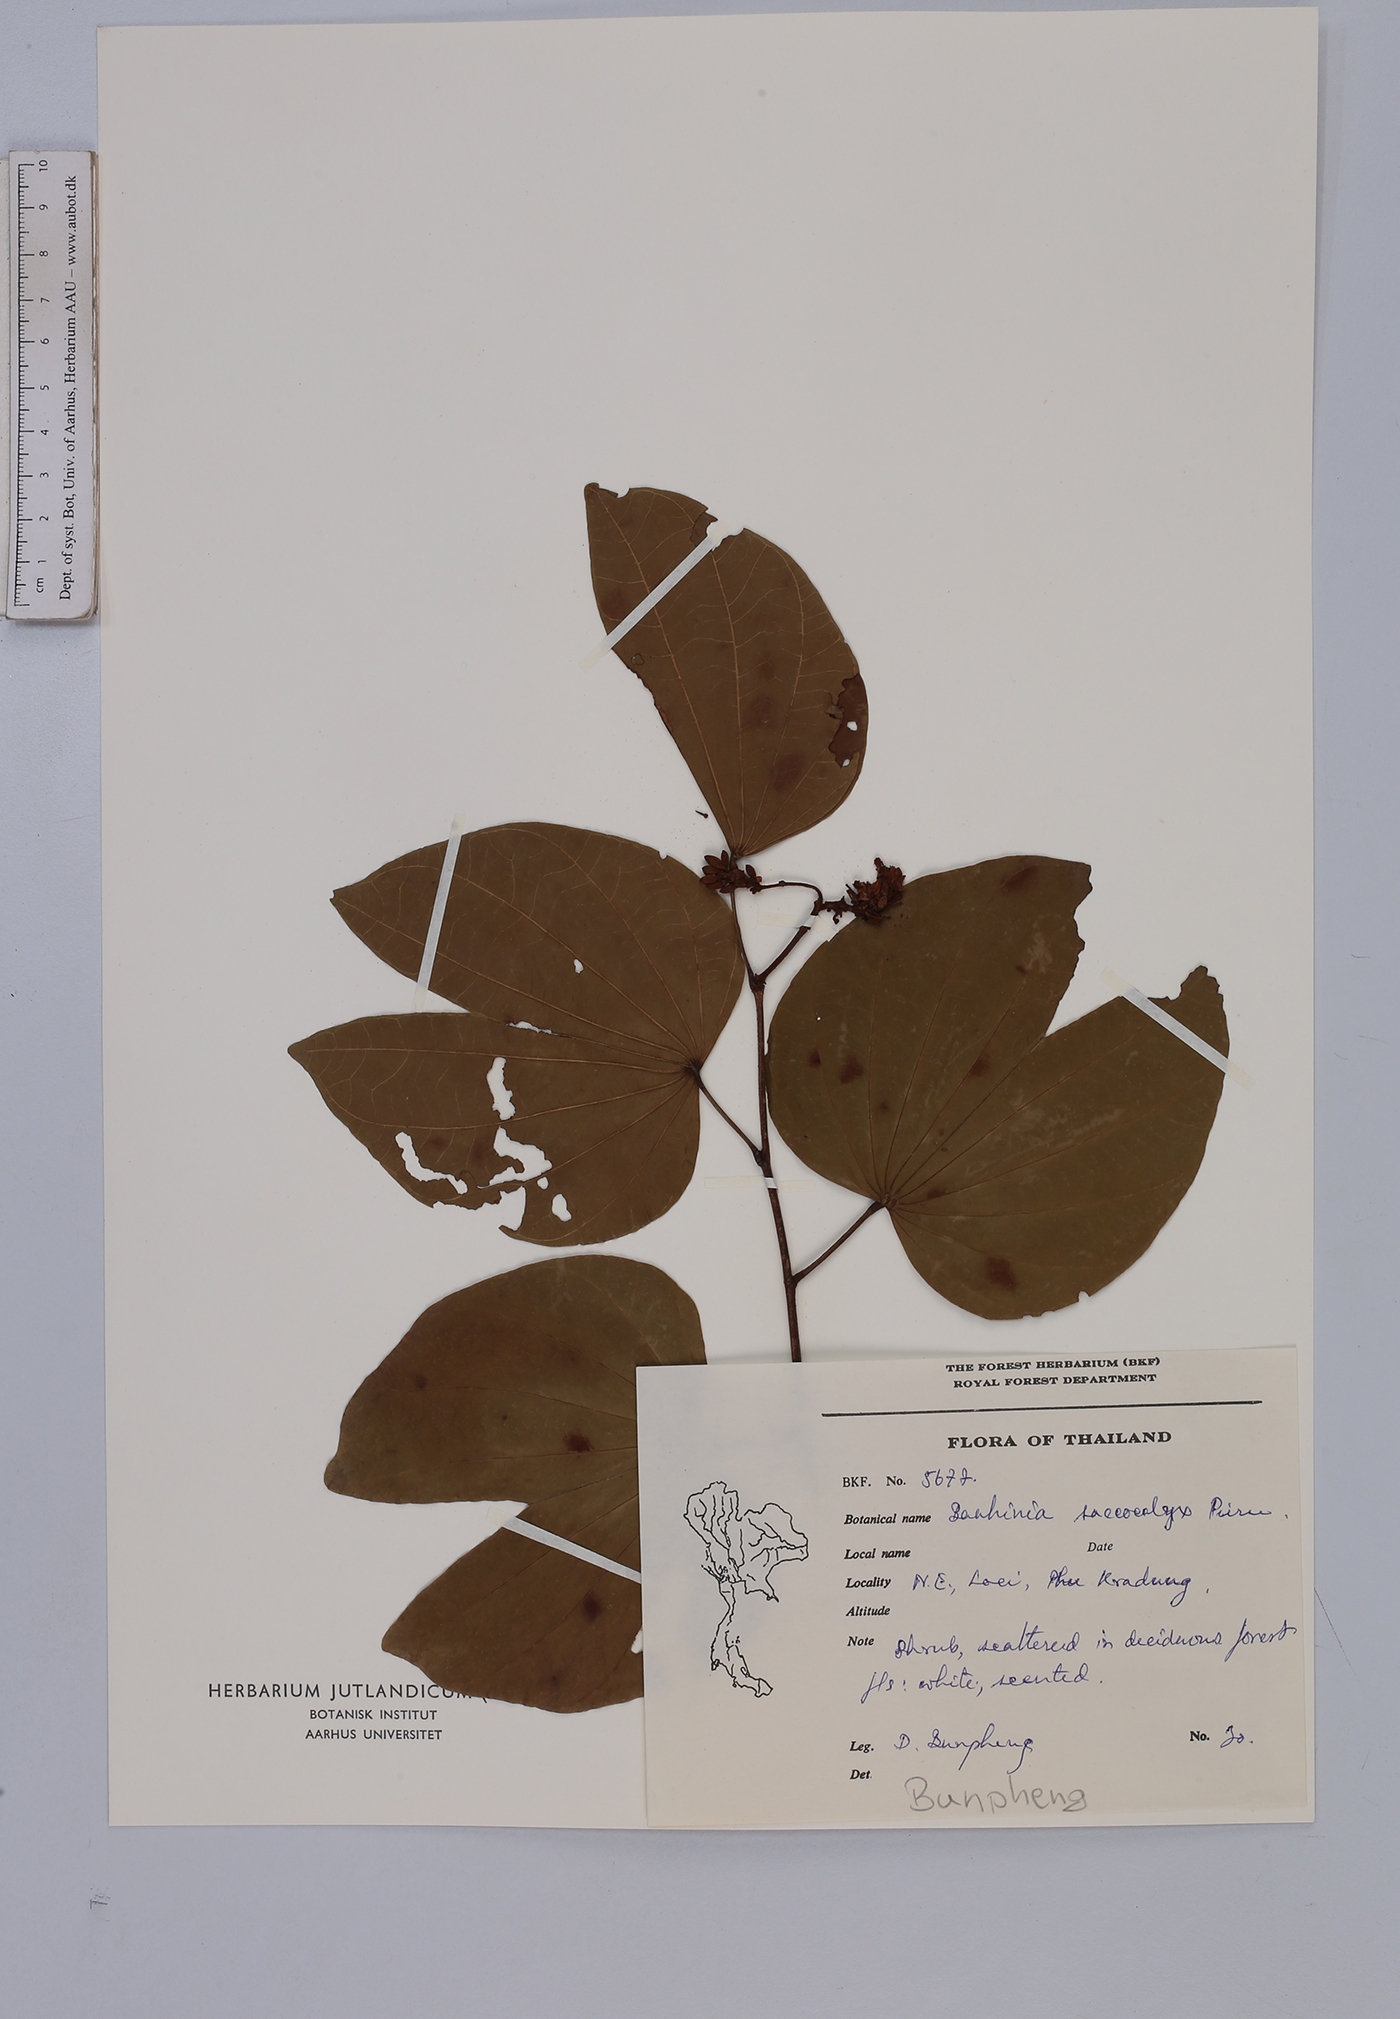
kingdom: Plantae
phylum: Tracheophyta
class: Magnoliopsida
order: Fabales
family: Fabaceae
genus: Bauhinia
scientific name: Bauhinia saccocalyx
